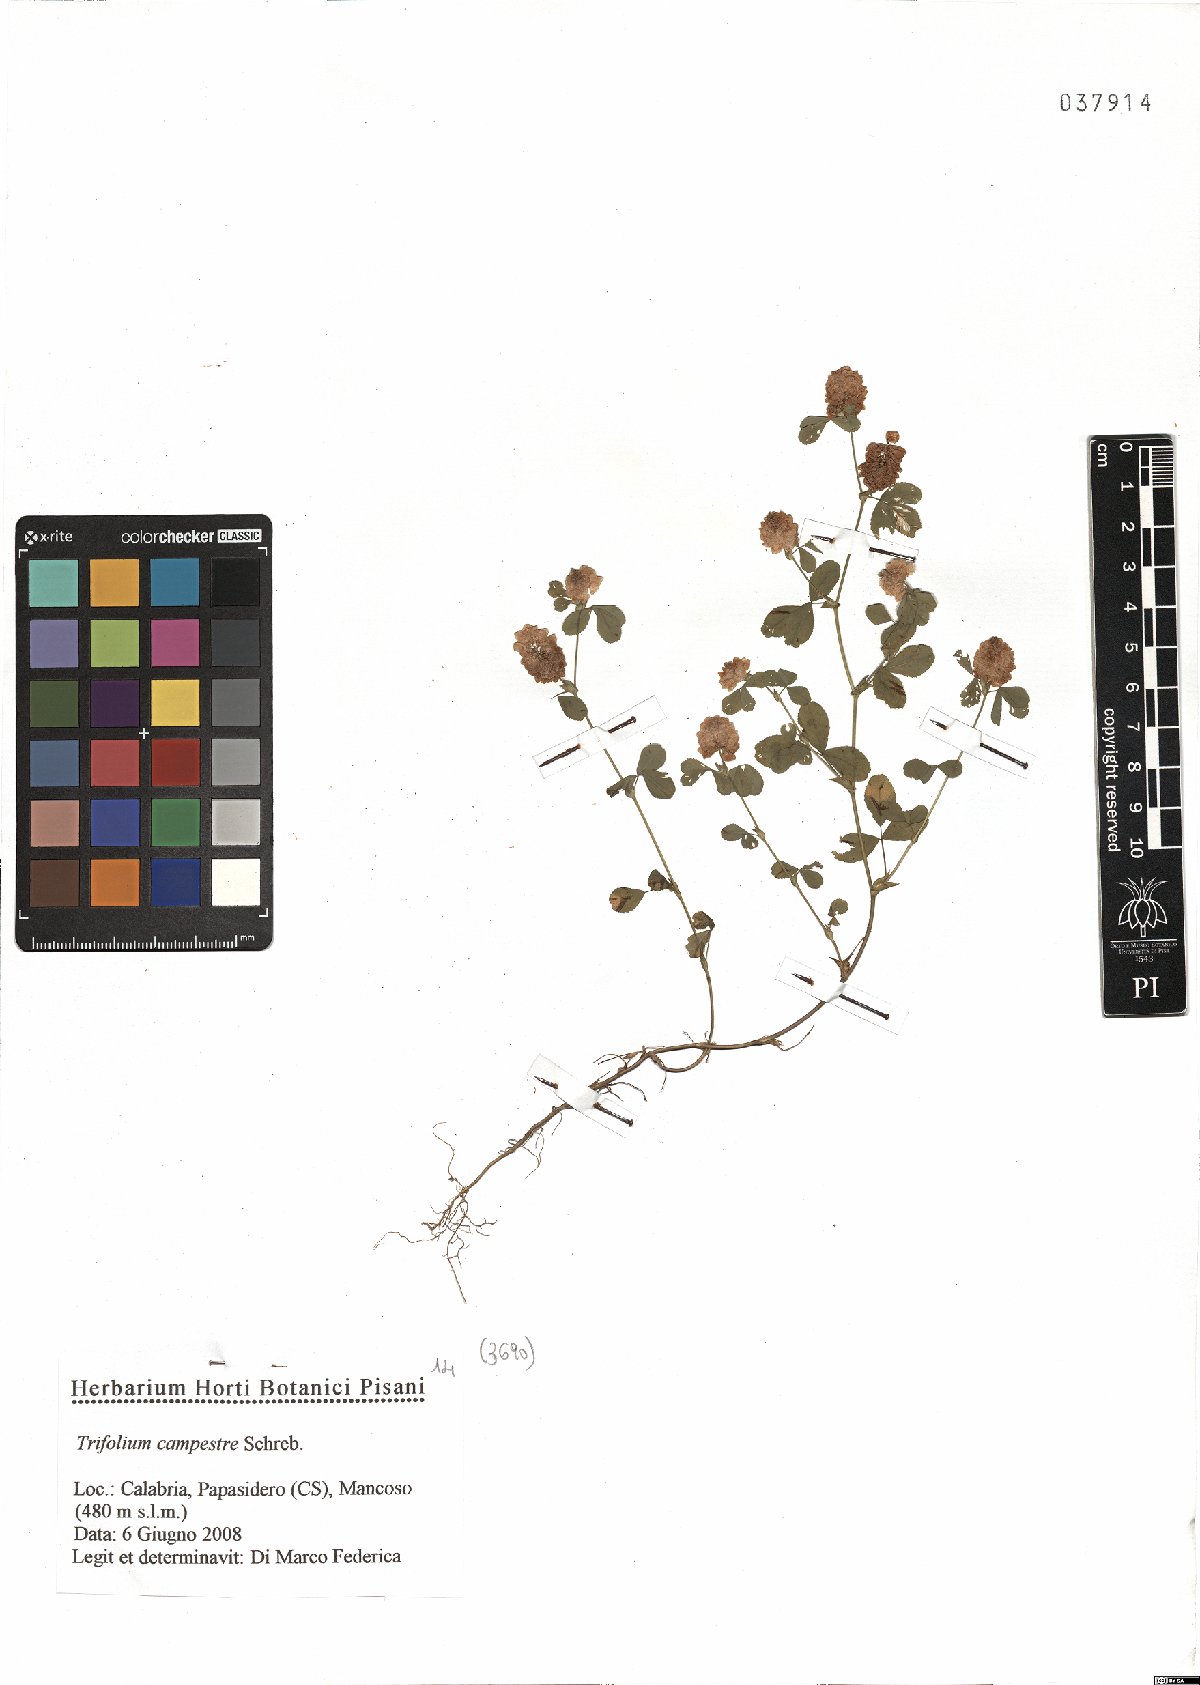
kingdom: Plantae
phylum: Tracheophyta
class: Magnoliopsida
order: Fabales
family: Fabaceae
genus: Trifolium
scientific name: Trifolium campestre
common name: Field clover
